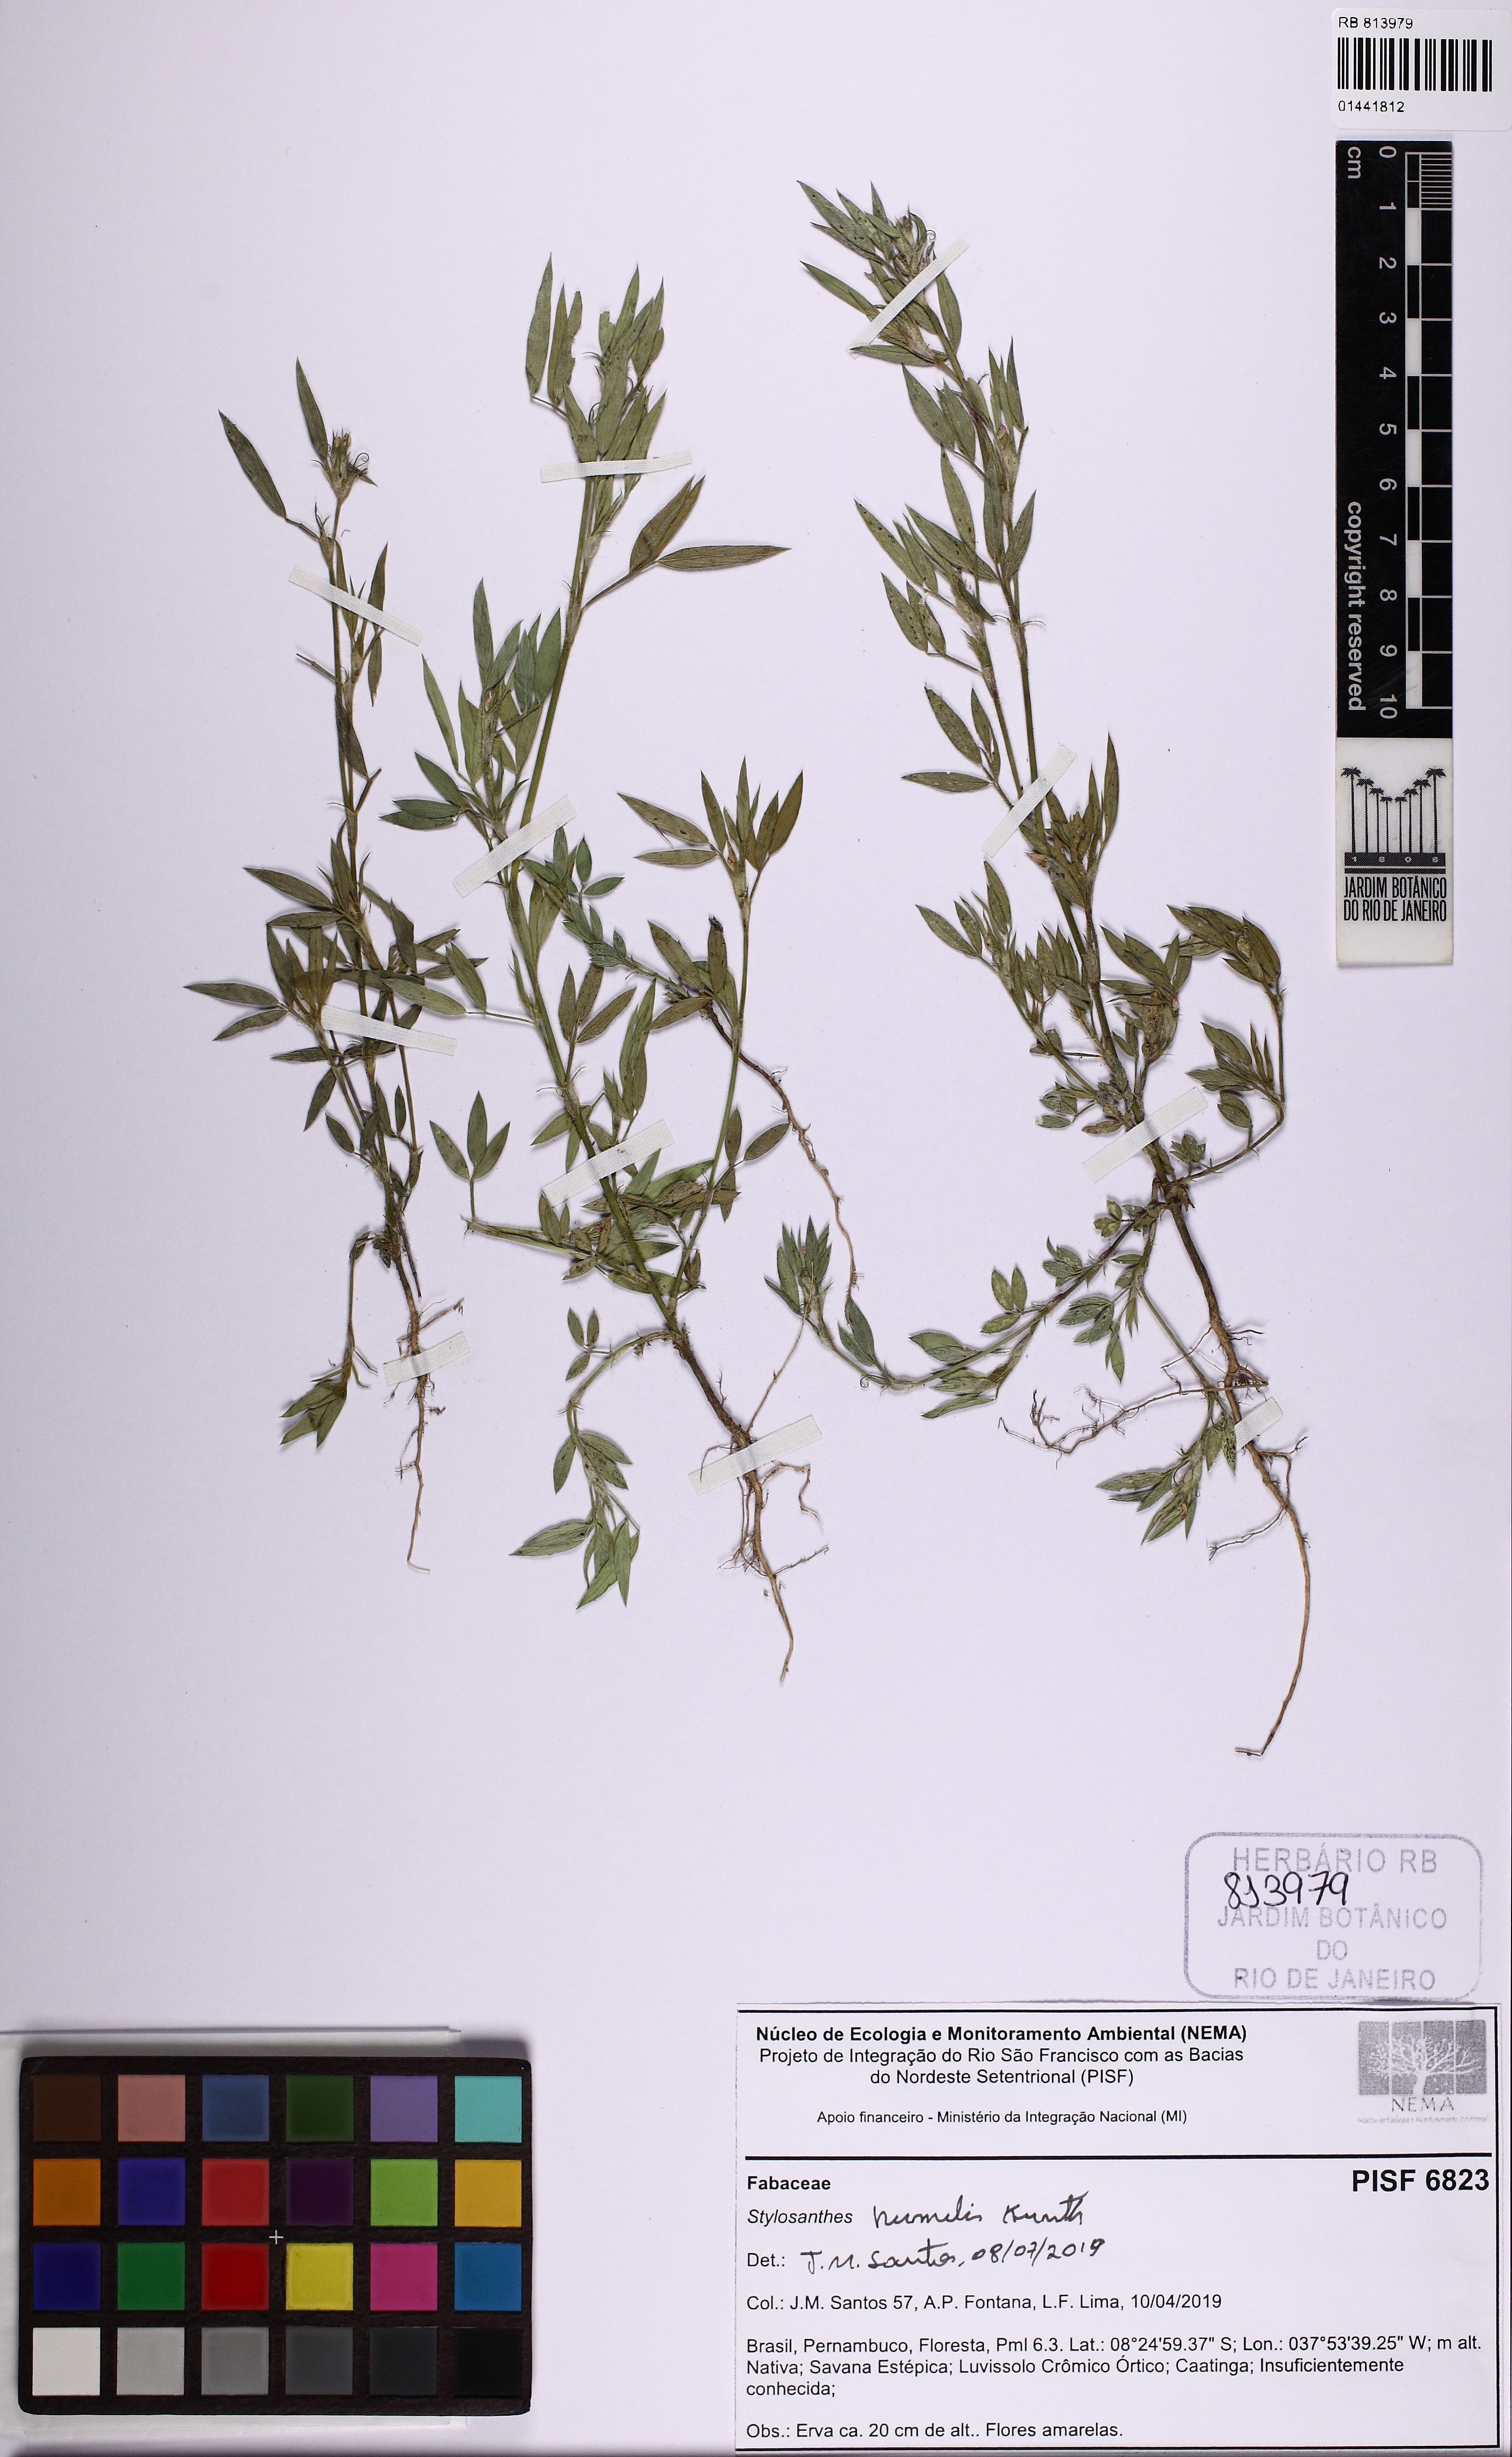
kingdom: Plantae
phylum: Tracheophyta
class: Magnoliopsida
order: Fabales
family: Fabaceae
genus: Stylosanthes
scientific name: Stylosanthes humilis
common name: Townsville stylo
